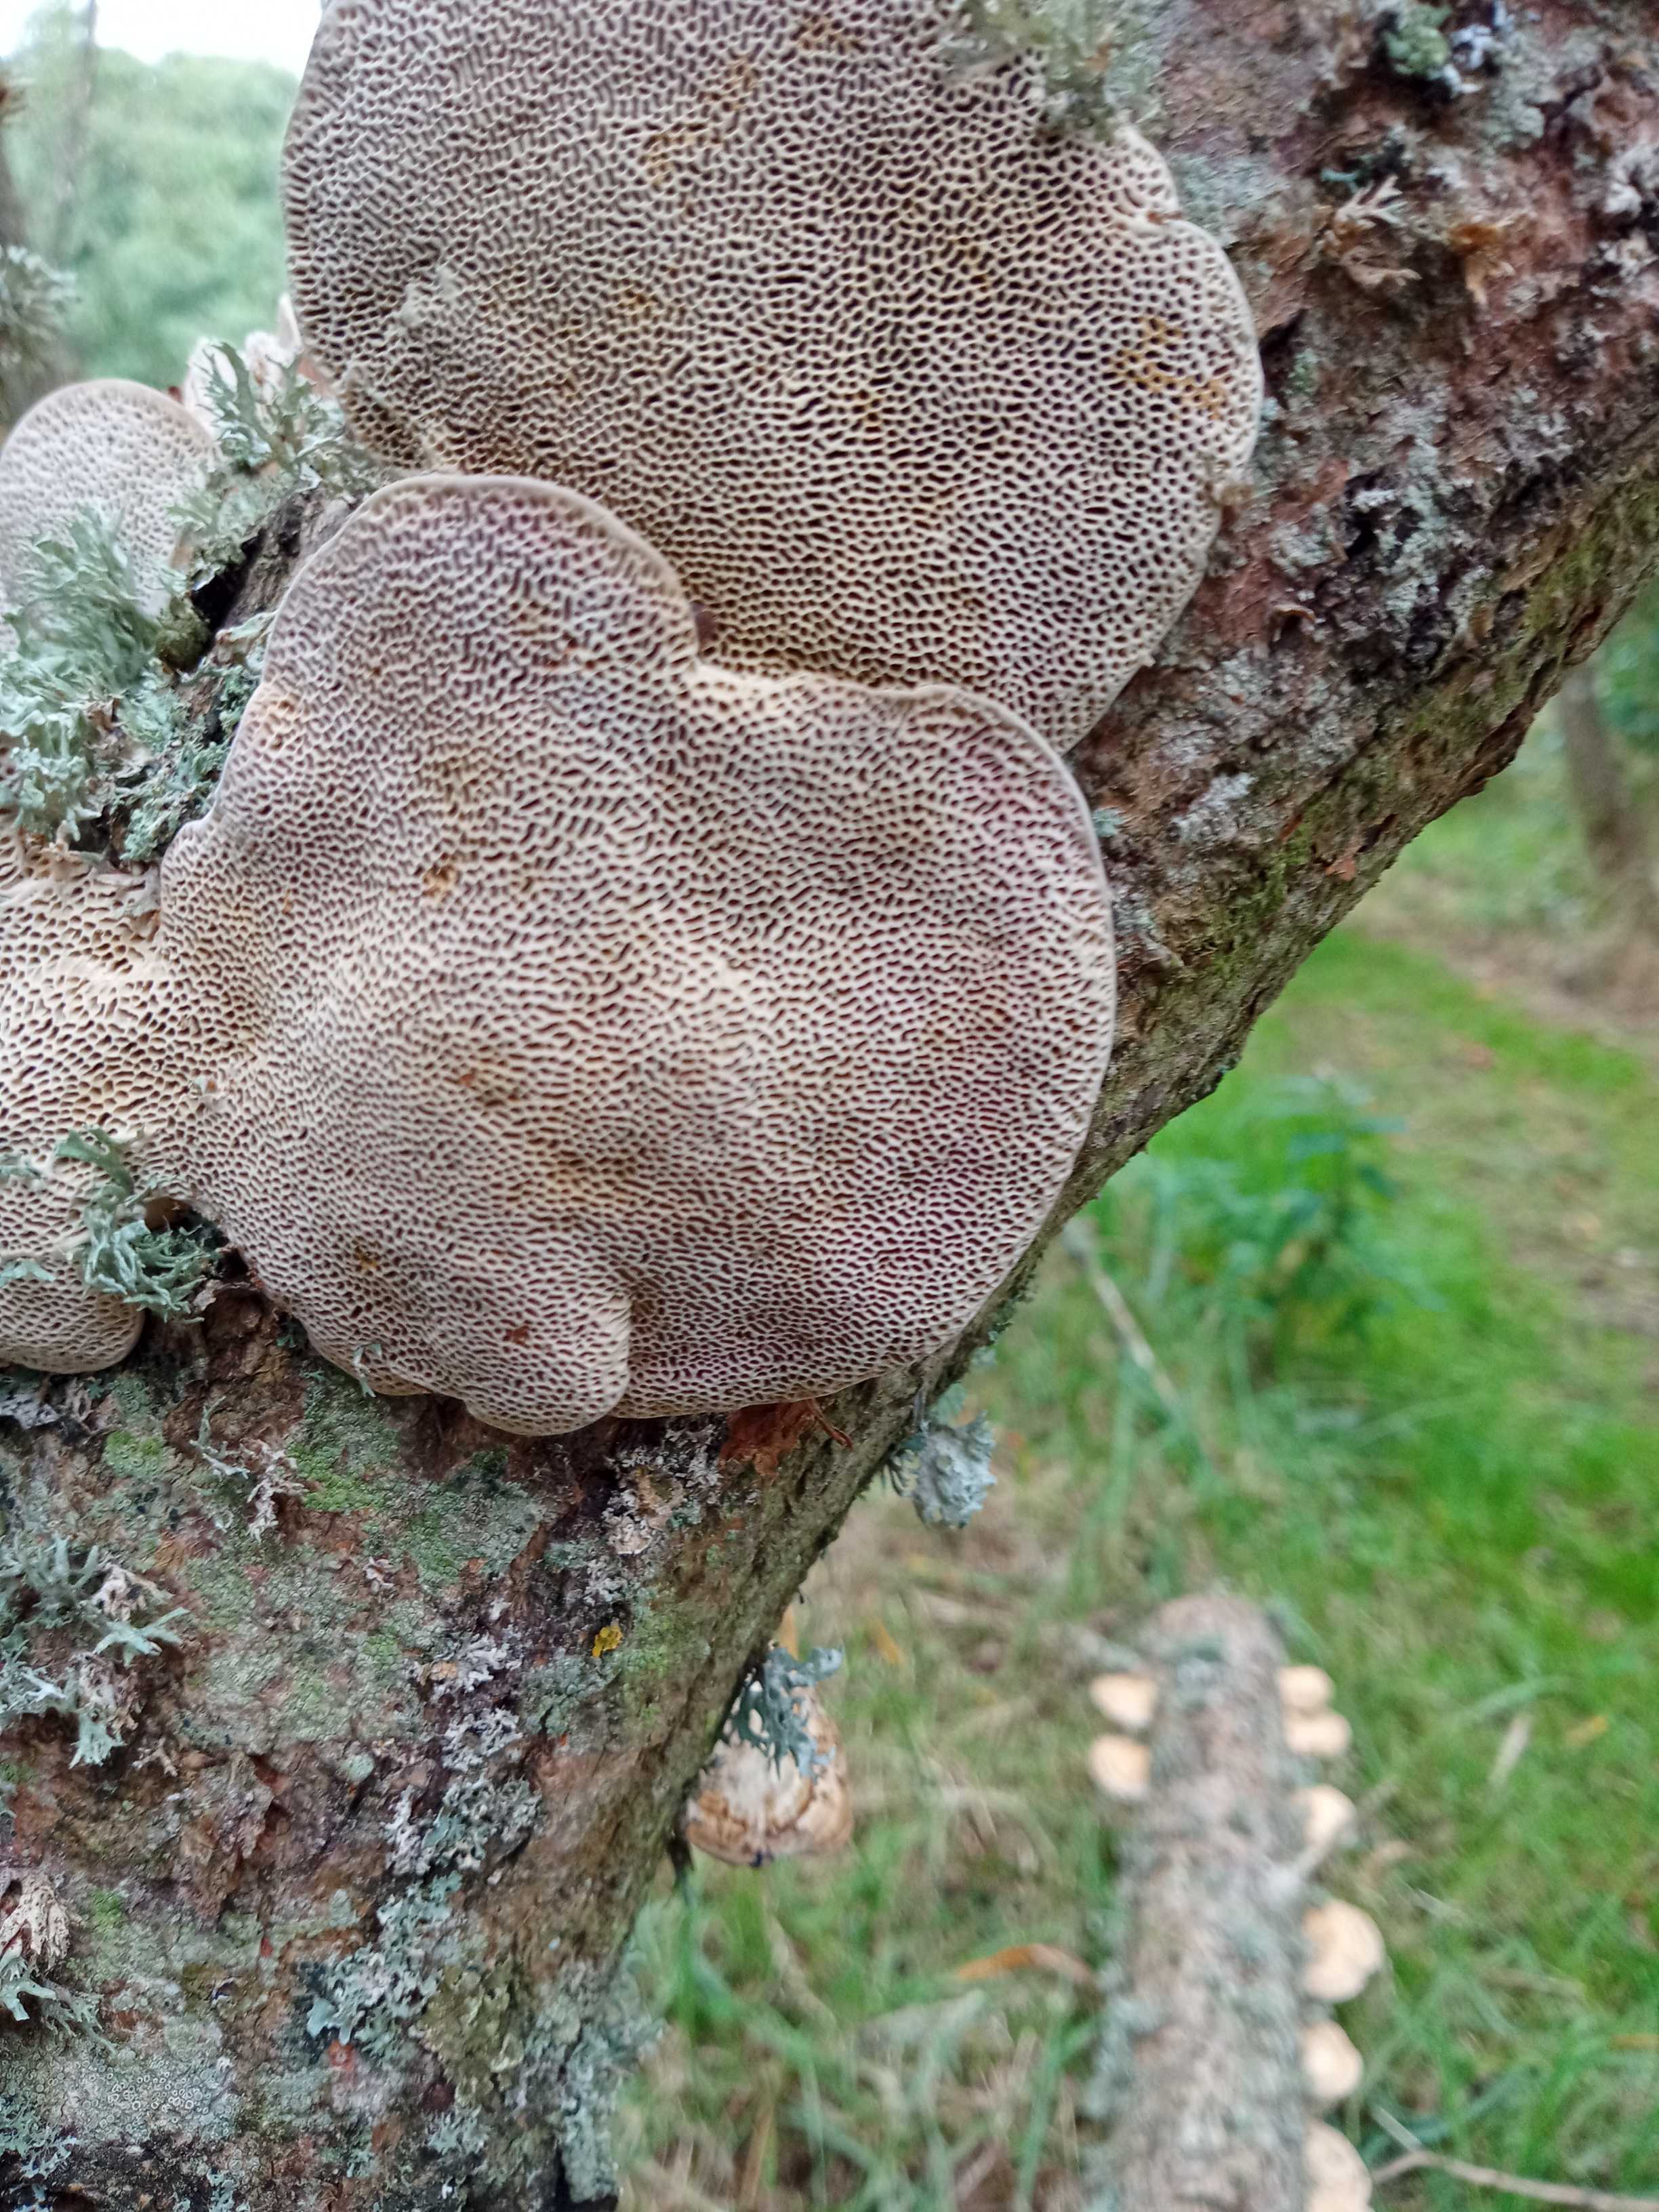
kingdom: Fungi
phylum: Basidiomycota
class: Agaricomycetes
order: Polyporales
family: Polyporaceae
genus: Daedaleopsis
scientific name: Daedaleopsis confragosa
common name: rødmende læderporesvamp
